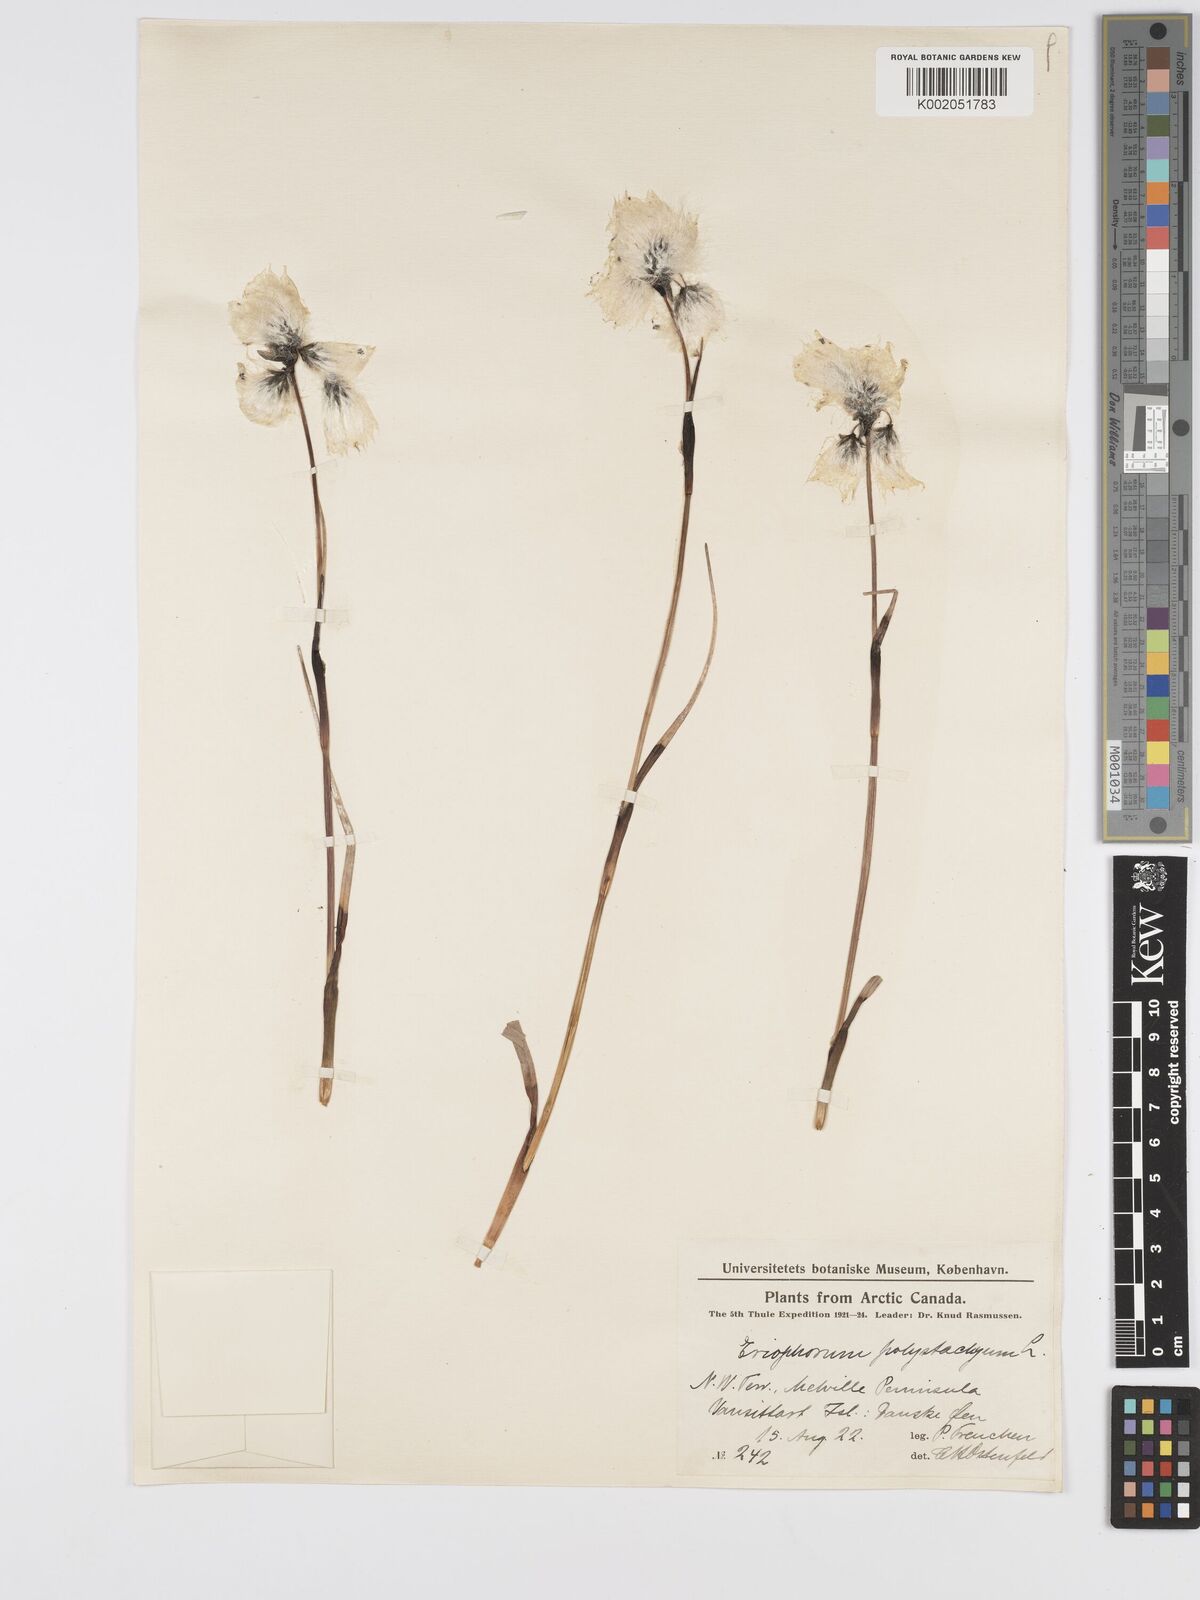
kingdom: Plantae
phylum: Tracheophyta
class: Liliopsida
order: Poales
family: Cyperaceae
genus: Eriophorum
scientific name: Eriophorum angustifolium
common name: Common cottongrass
